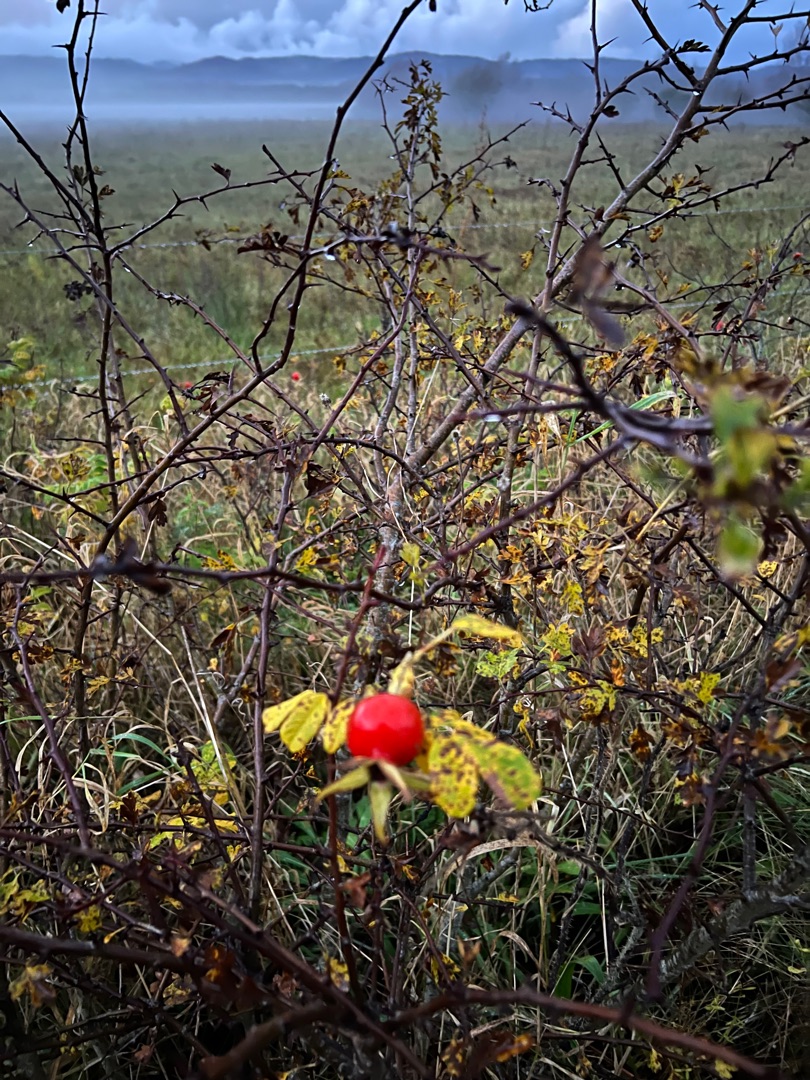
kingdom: Plantae
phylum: Tracheophyta
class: Magnoliopsida
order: Rosales
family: Rosaceae
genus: Rosa
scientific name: Rosa rugosa
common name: Rynket rose
